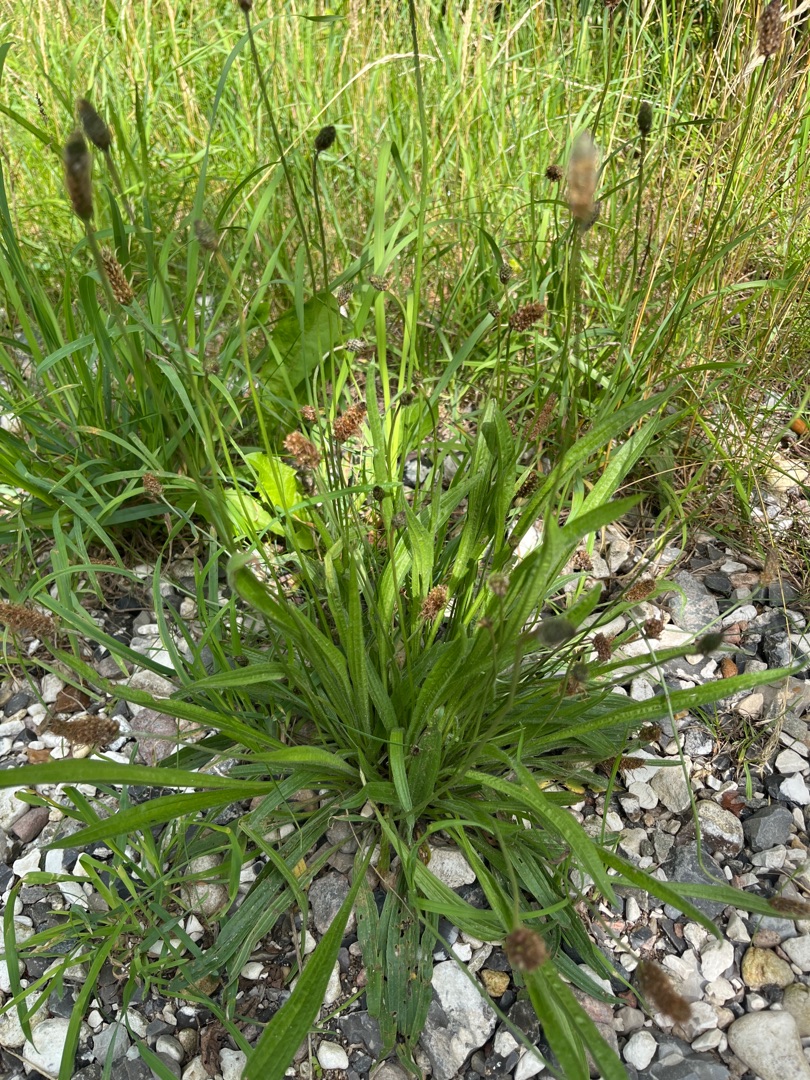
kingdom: Plantae
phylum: Tracheophyta
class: Magnoliopsida
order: Lamiales
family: Plantaginaceae
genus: Plantago
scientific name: Plantago lanceolata
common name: Lancet-vejbred
